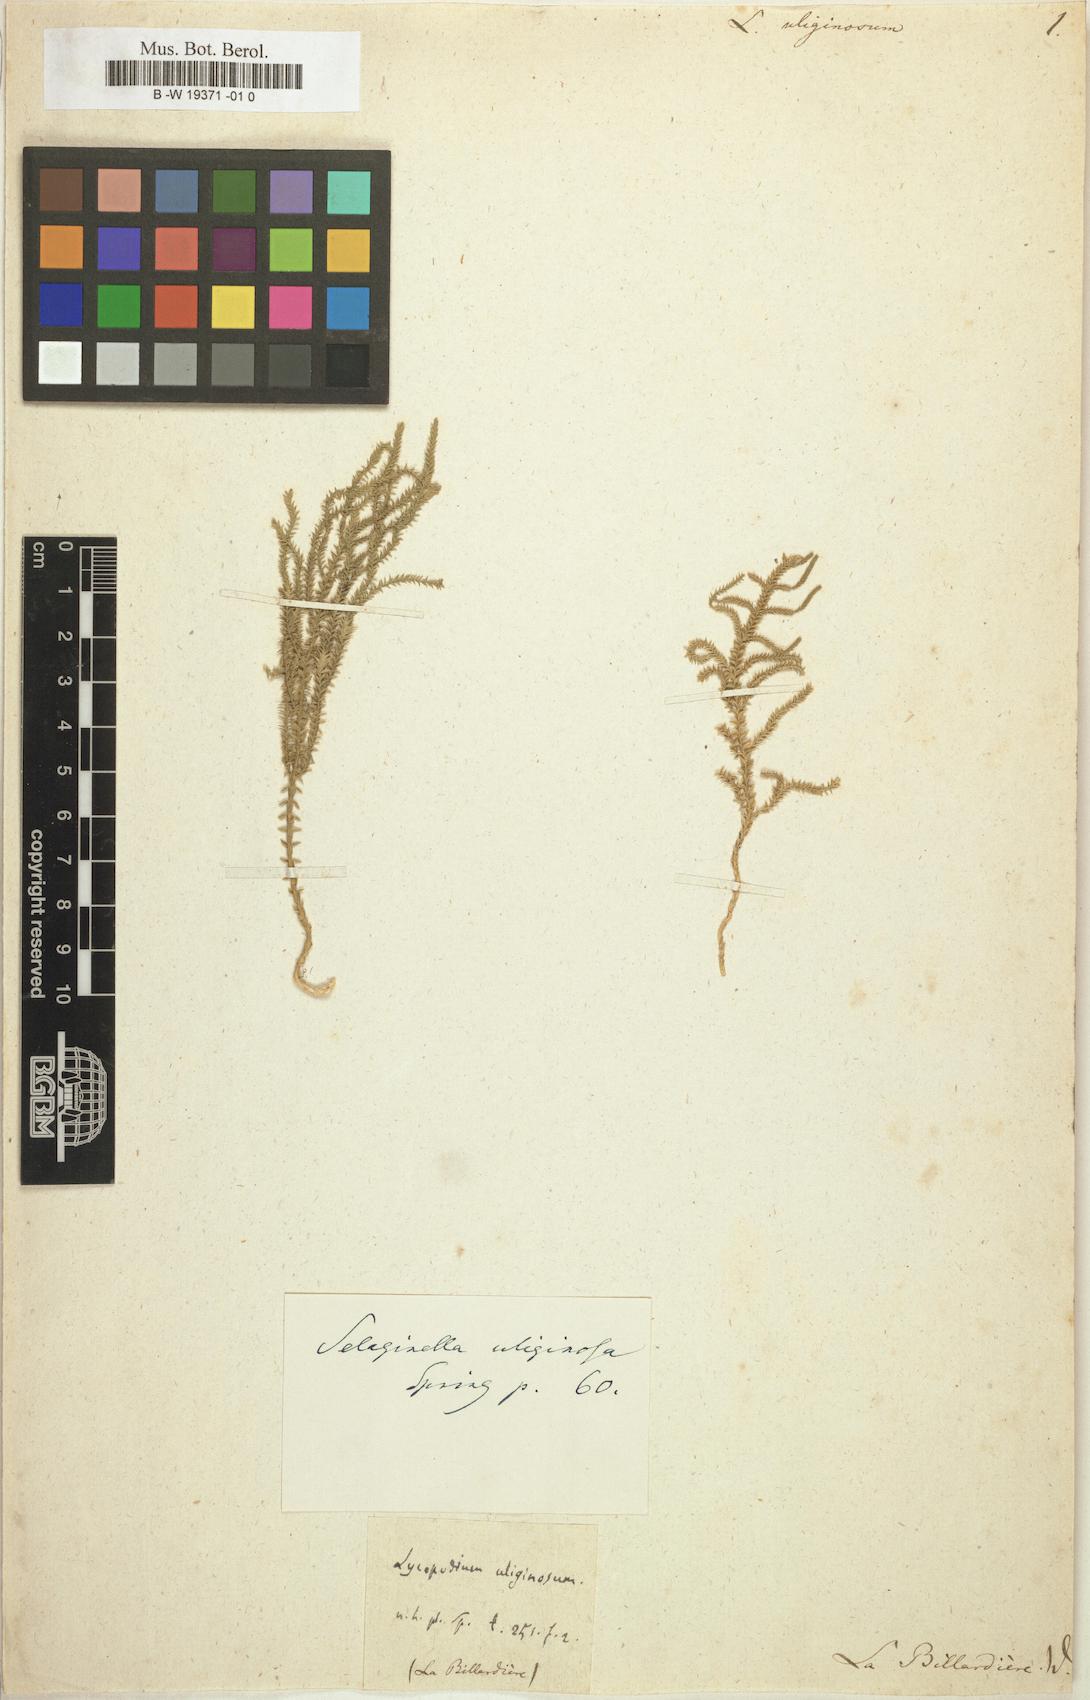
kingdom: Plantae
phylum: Tracheophyta
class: Lycopodiopsida
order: Selaginellales
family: Selaginellaceae
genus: Selaginella
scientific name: Selaginella uliginosa
